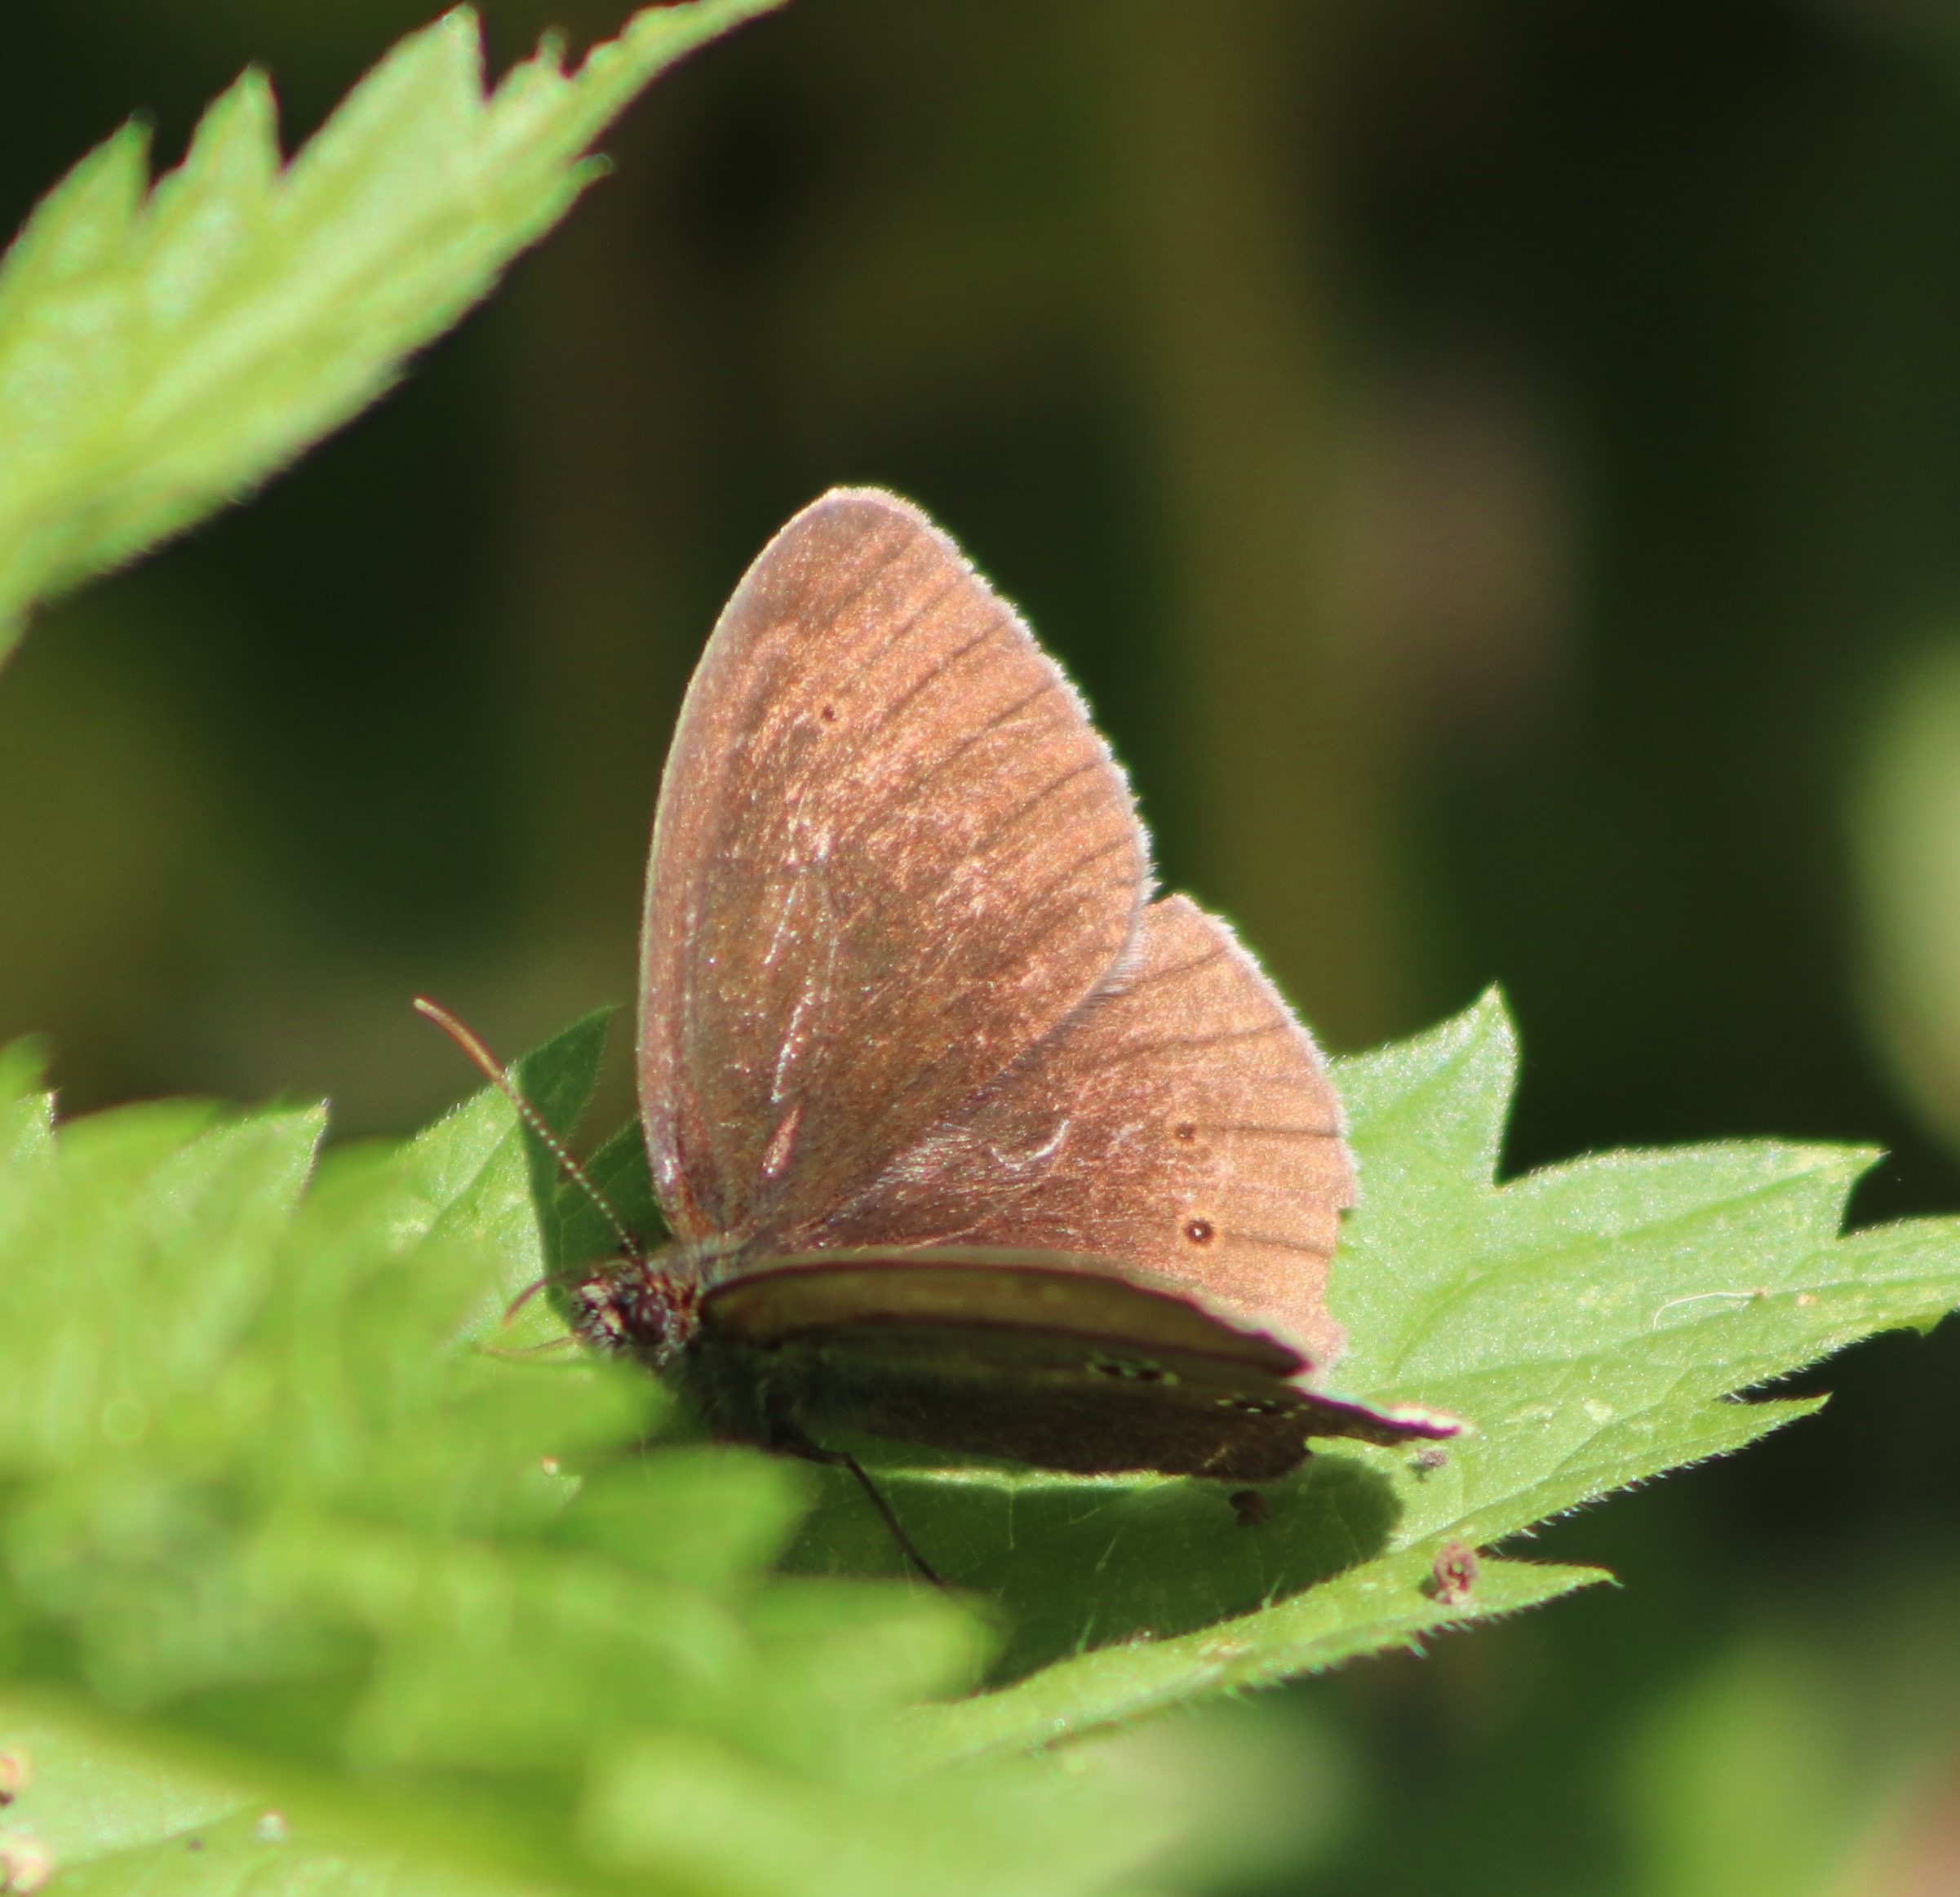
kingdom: Animalia
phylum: Arthropoda
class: Insecta
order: Lepidoptera
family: Nymphalidae
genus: Aphantopus
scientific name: Aphantopus hyperantus
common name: Engrandøje
